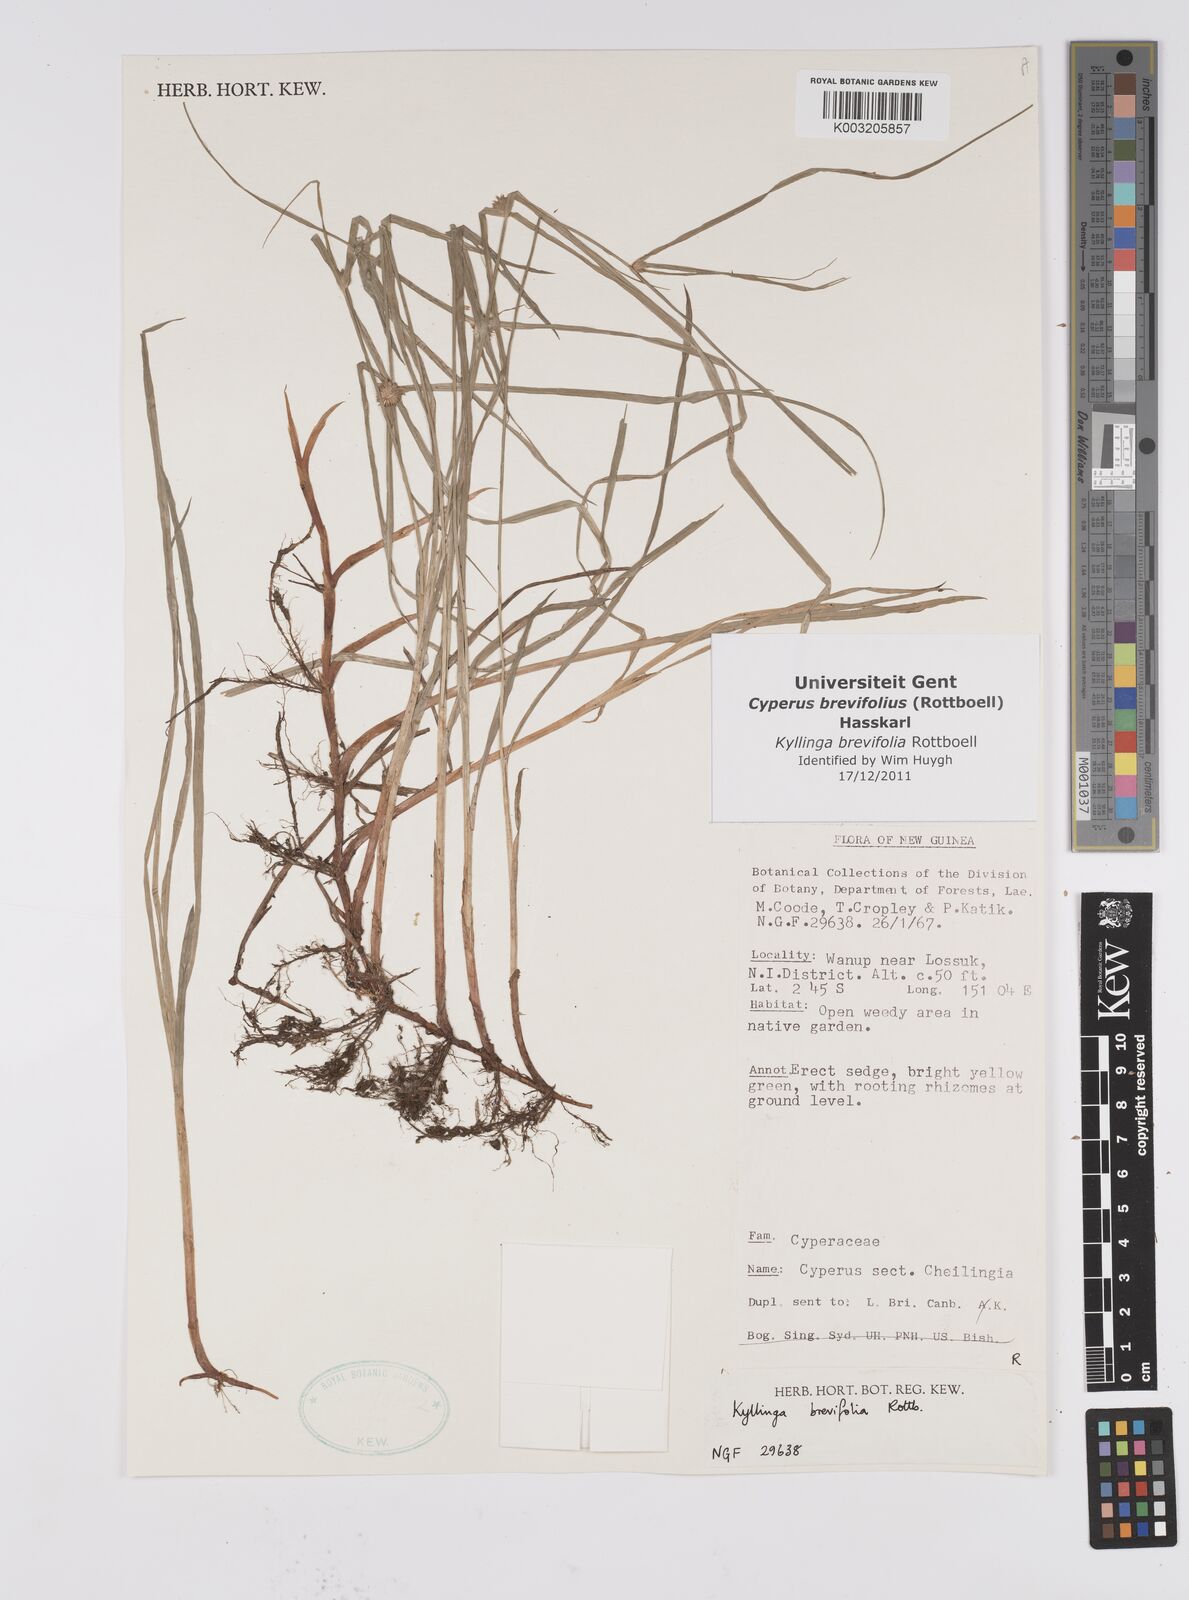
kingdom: Plantae
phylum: Tracheophyta
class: Liliopsida
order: Poales
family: Cyperaceae
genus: Cyperus
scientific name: Cyperus brevifolius
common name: Globe kyllinga
